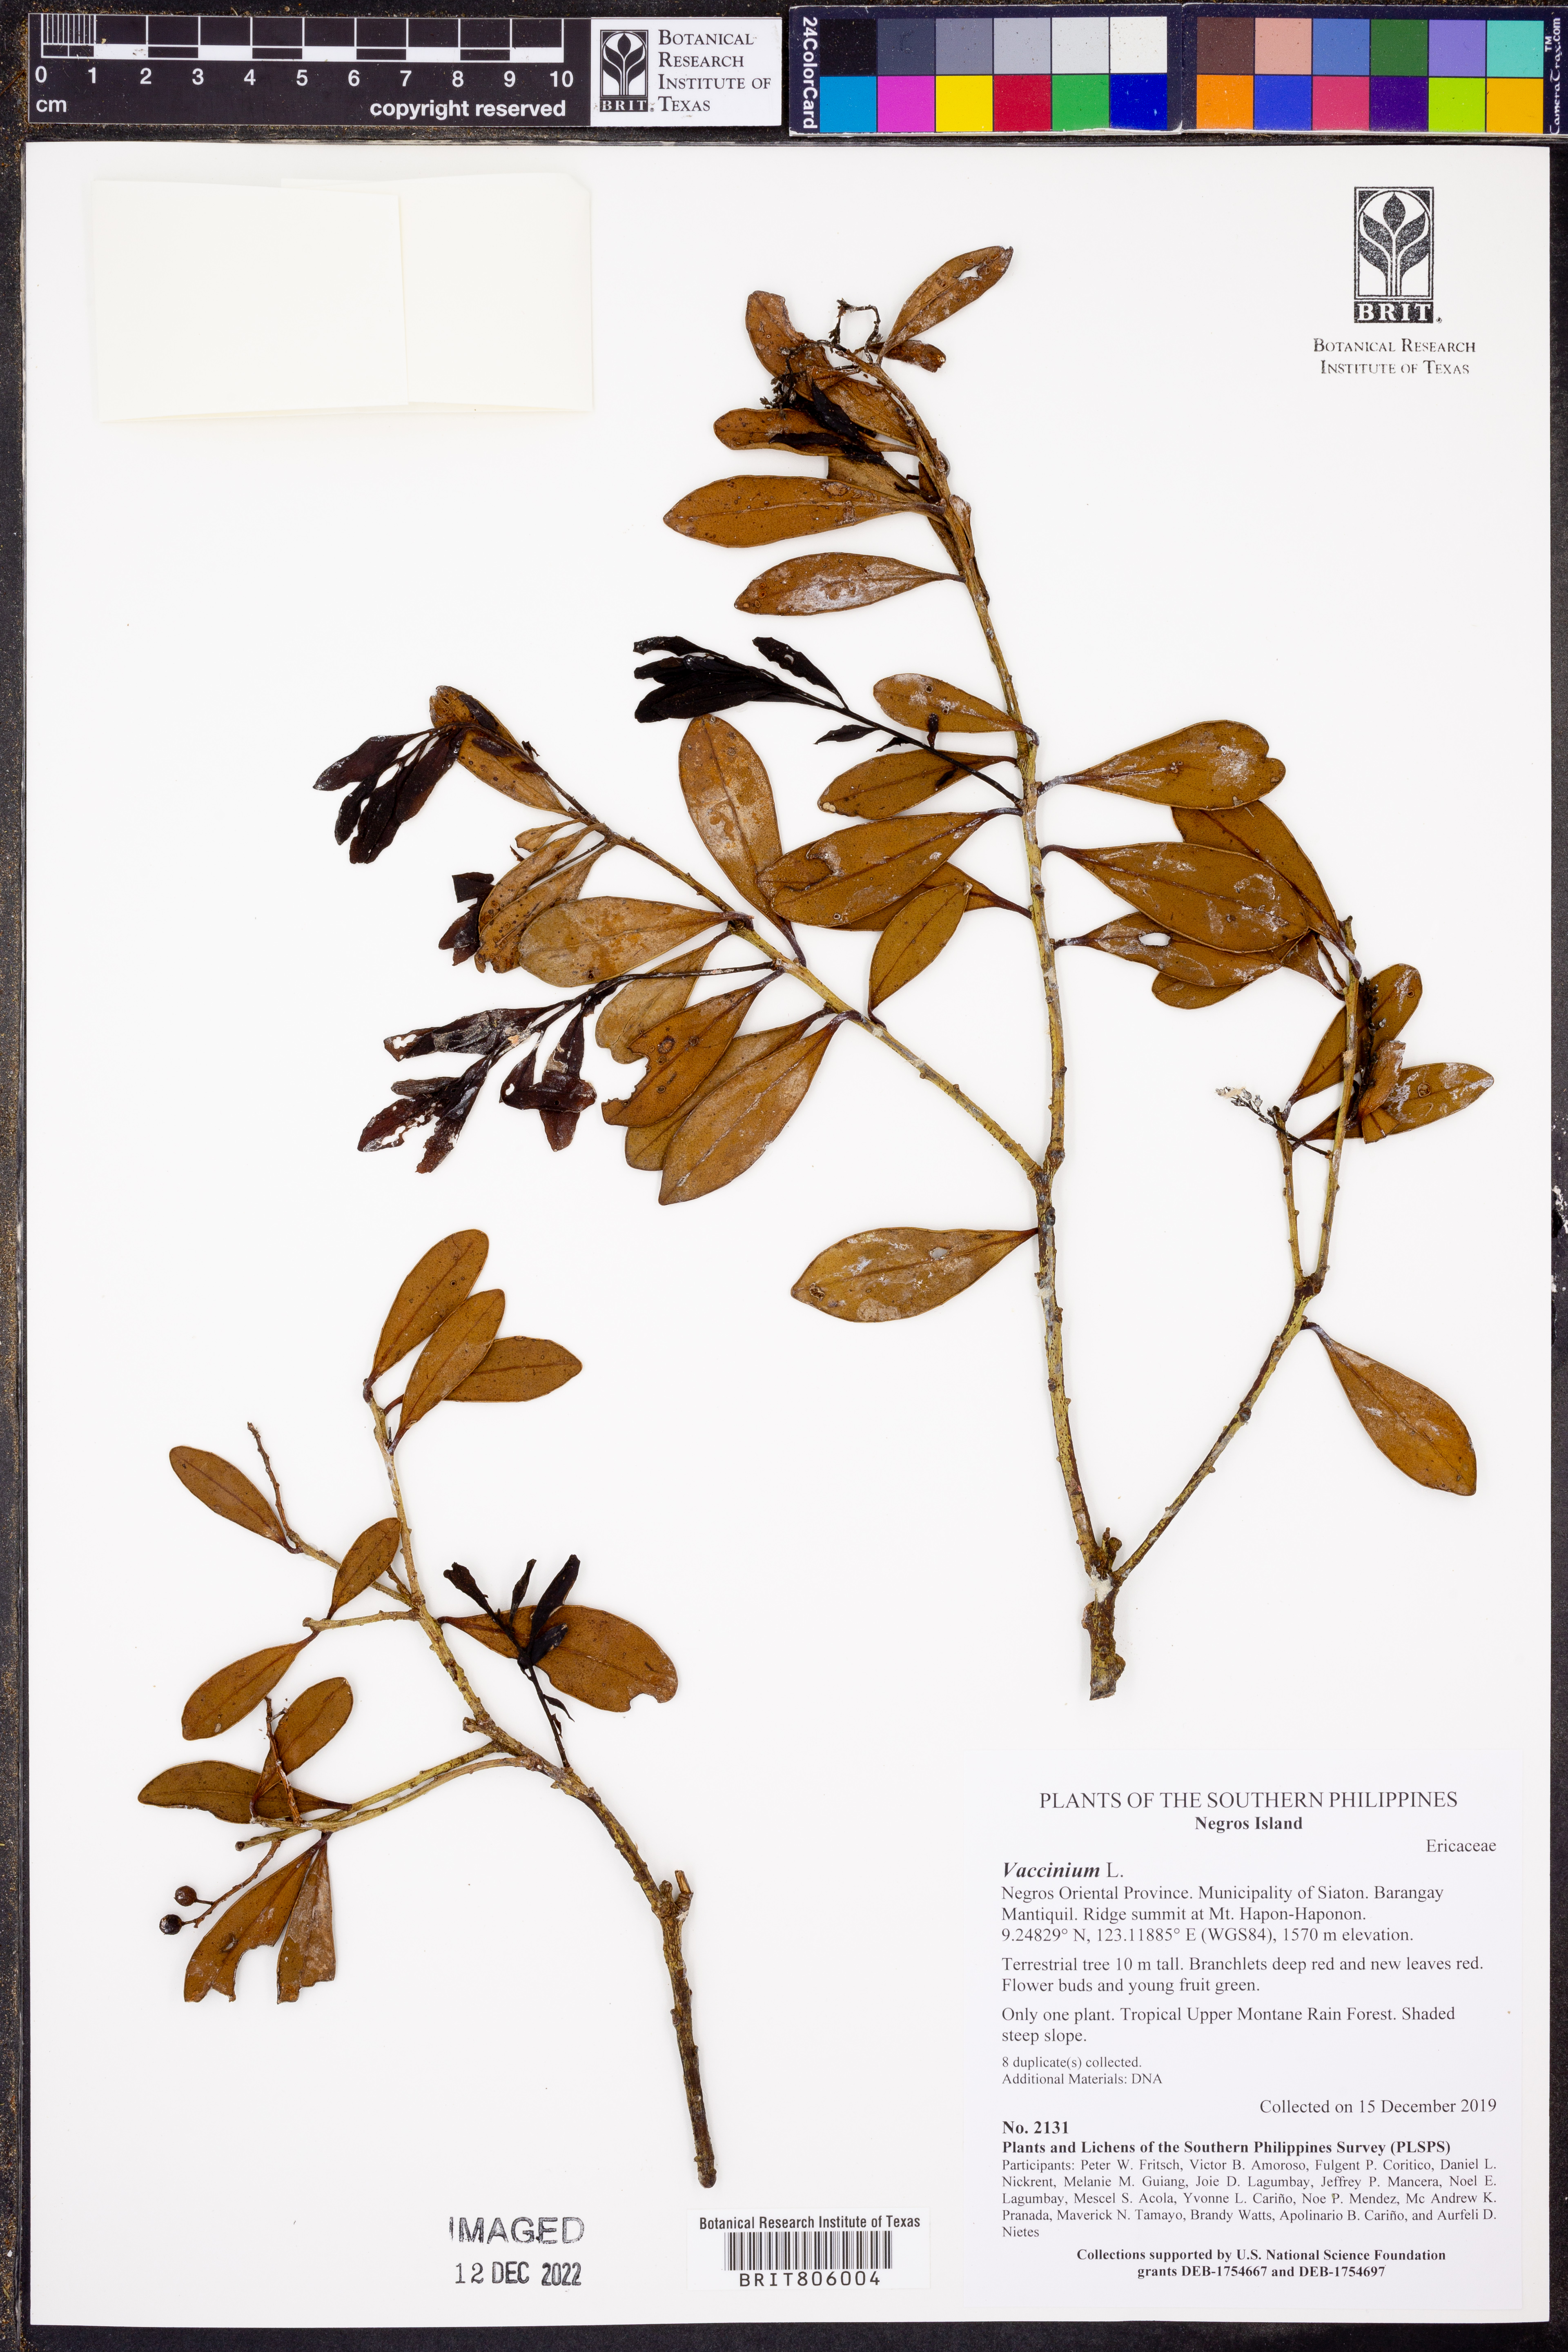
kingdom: Plantae
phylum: Tracheophyta
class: Magnoliopsida
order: Ericales
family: Ericaceae
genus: Vaccinium
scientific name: Vaccinium
